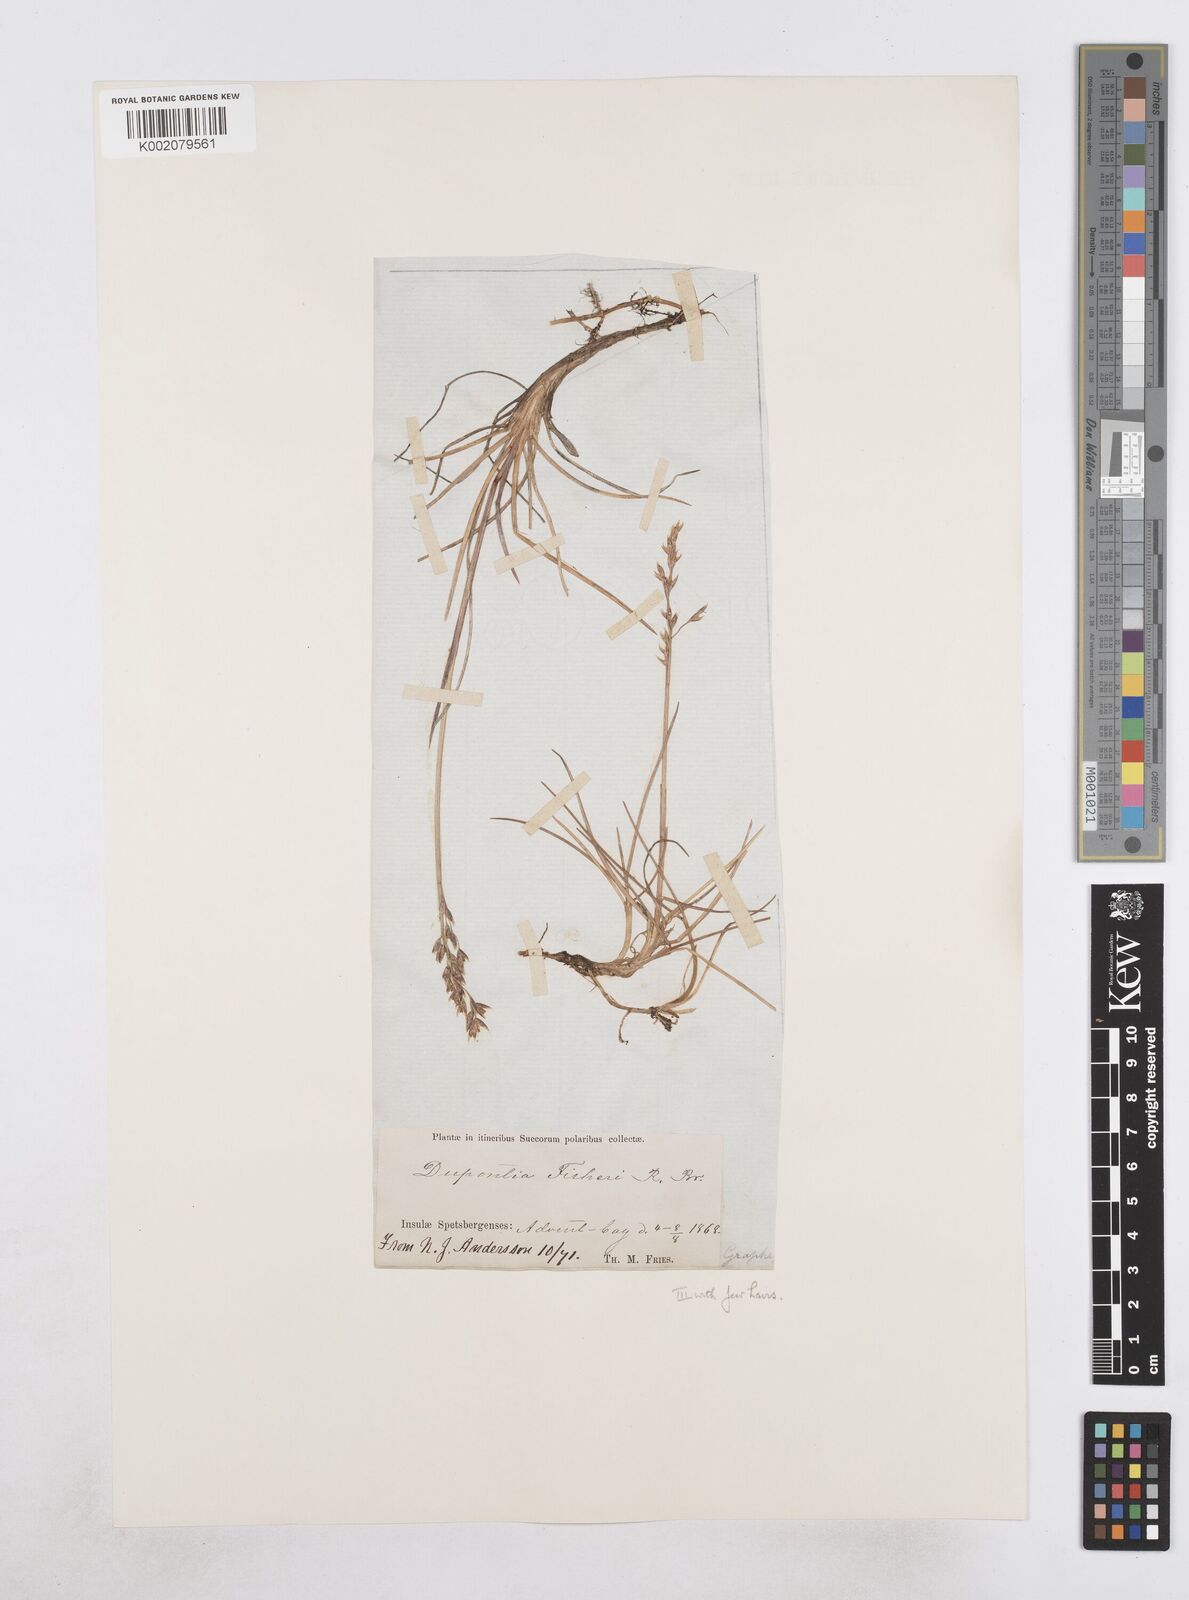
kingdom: Plantae
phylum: Tracheophyta
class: Liliopsida
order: Poales
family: Poaceae
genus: Dupontia
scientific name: Dupontia fisheri
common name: Tundra grass
